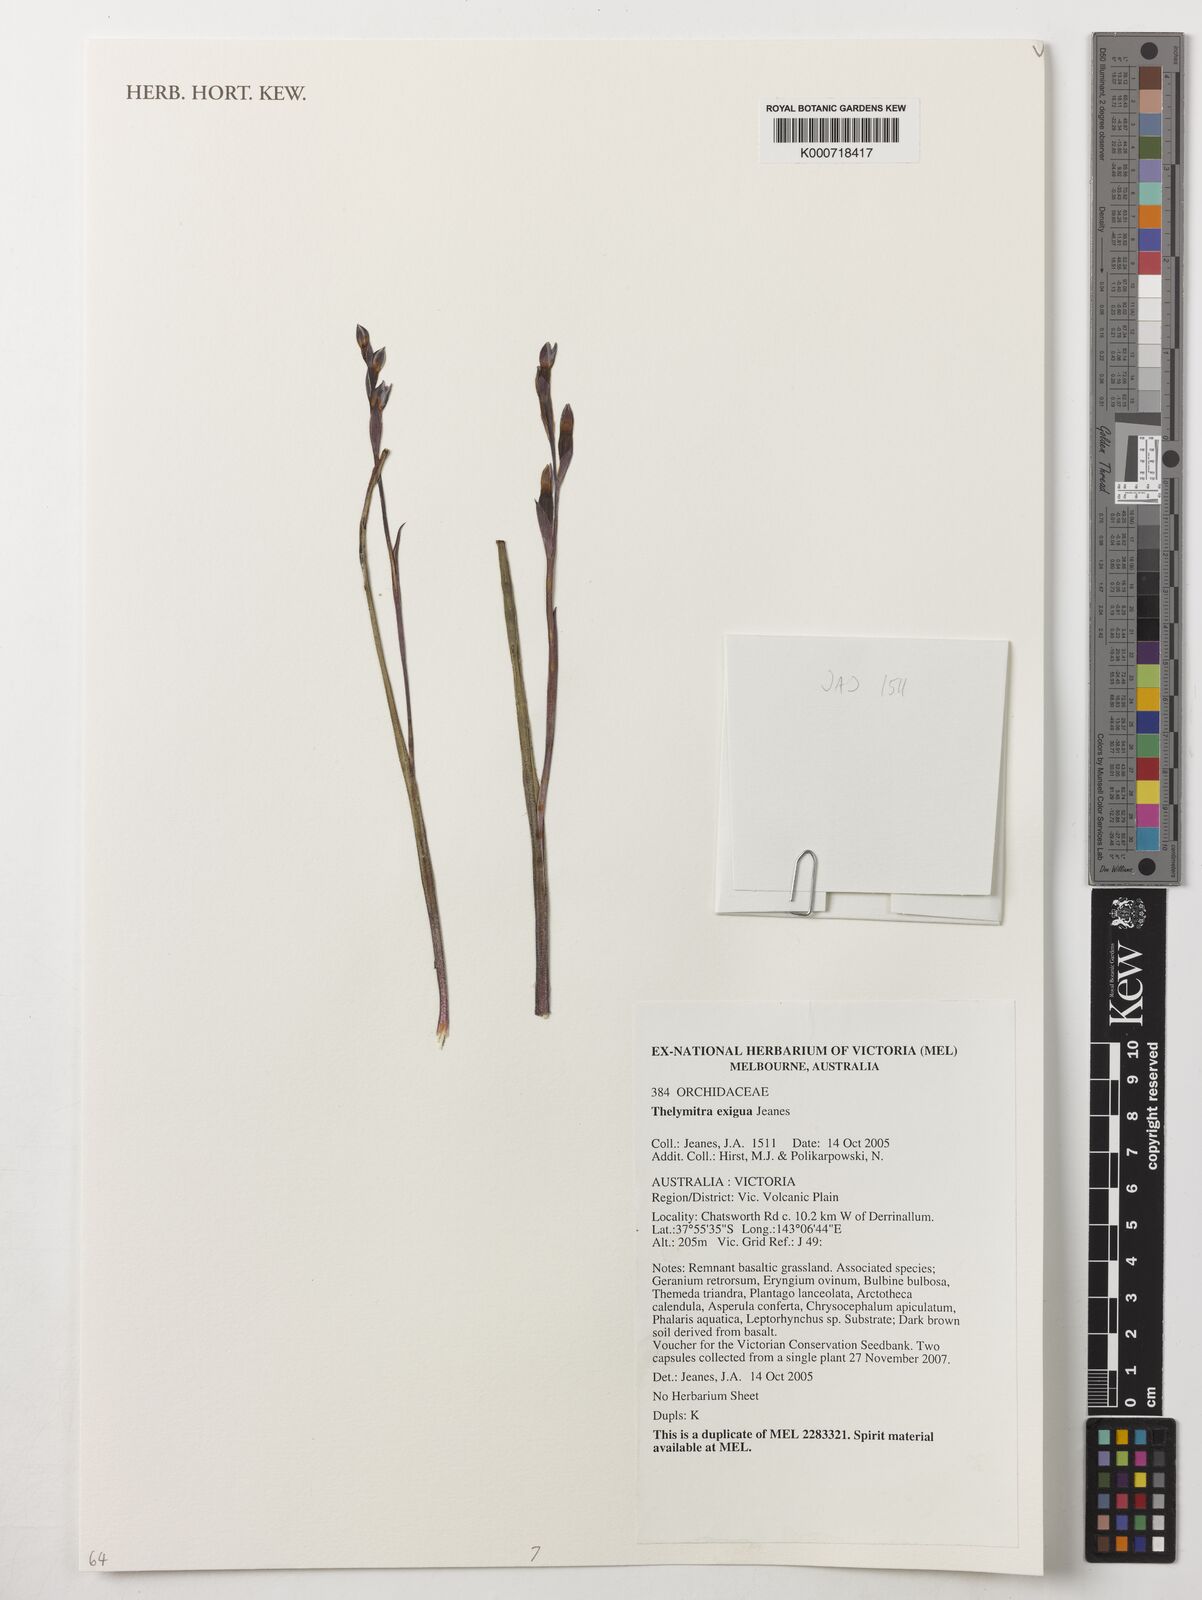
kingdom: Plantae
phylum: Tracheophyta
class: Liliopsida
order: Asparagales
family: Orchidaceae
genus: Thelymitra
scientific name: Thelymitra exigua
